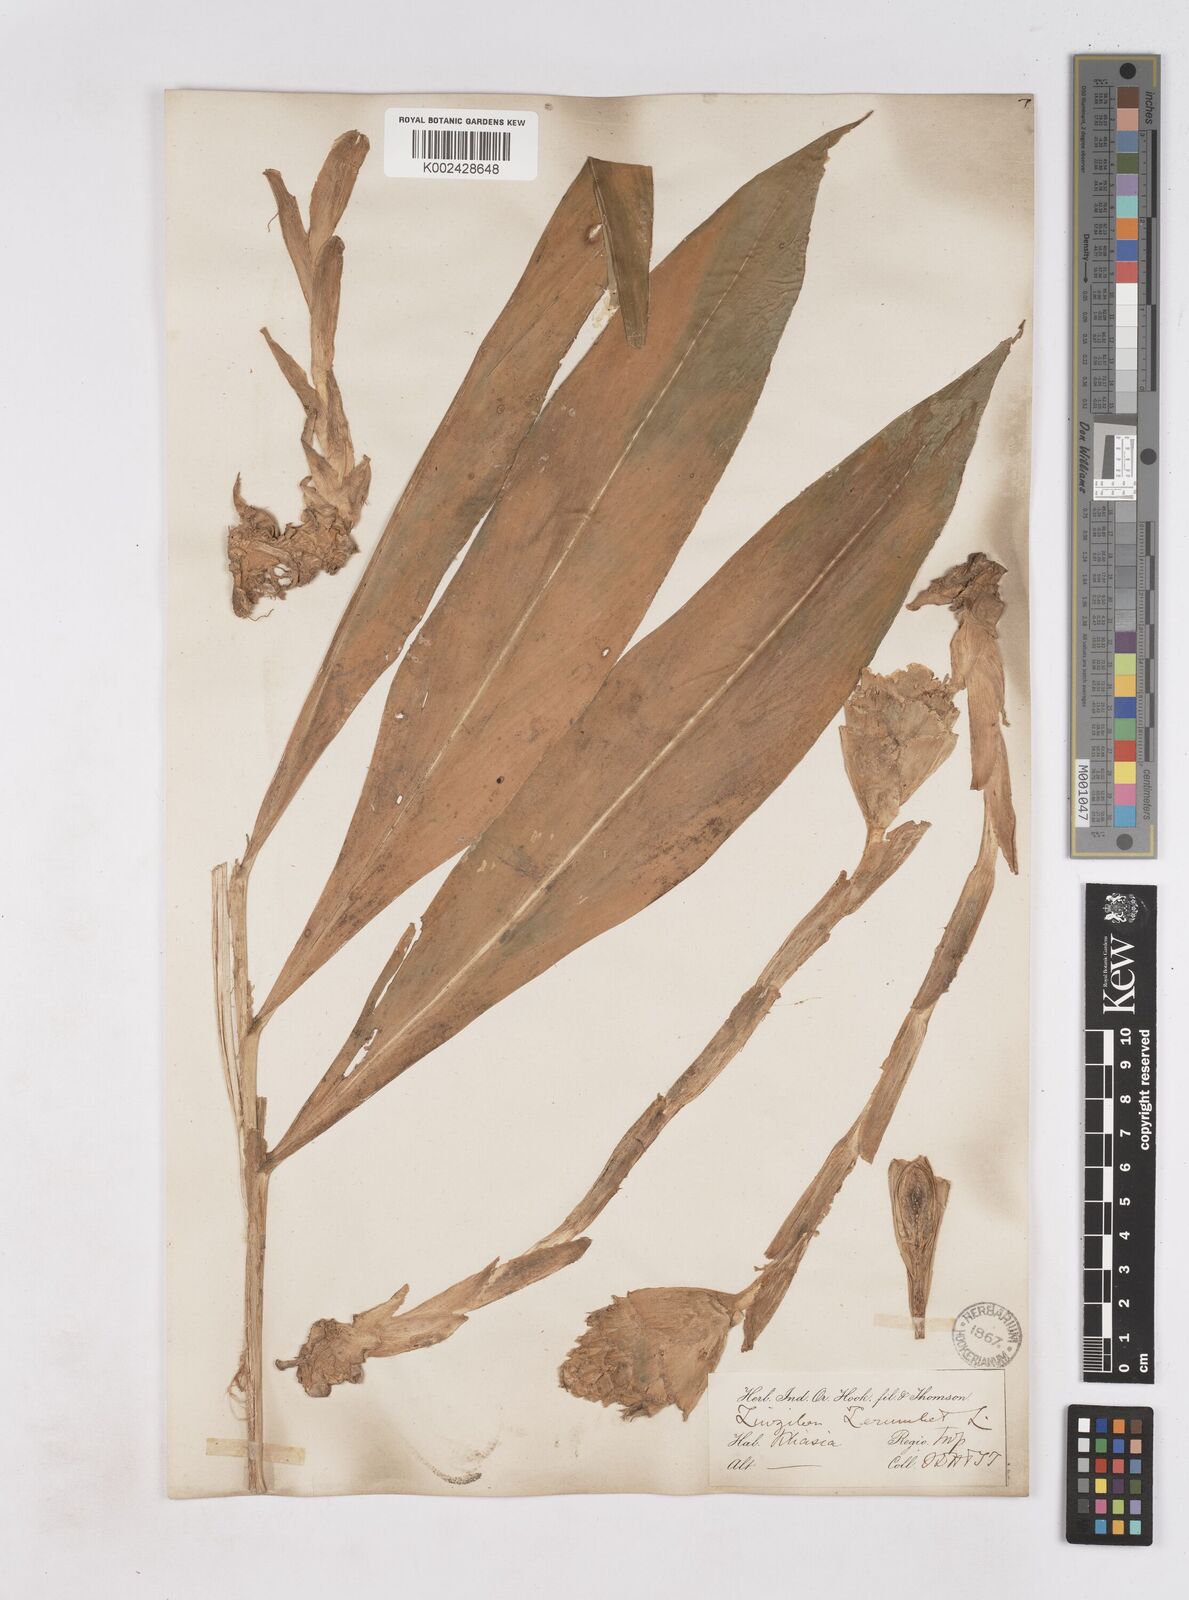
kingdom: Plantae
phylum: Tracheophyta
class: Liliopsida
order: Zingiberales
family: Zingiberaceae
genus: Zingiber
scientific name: Zingiber zerumbet
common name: Bitter ginger
